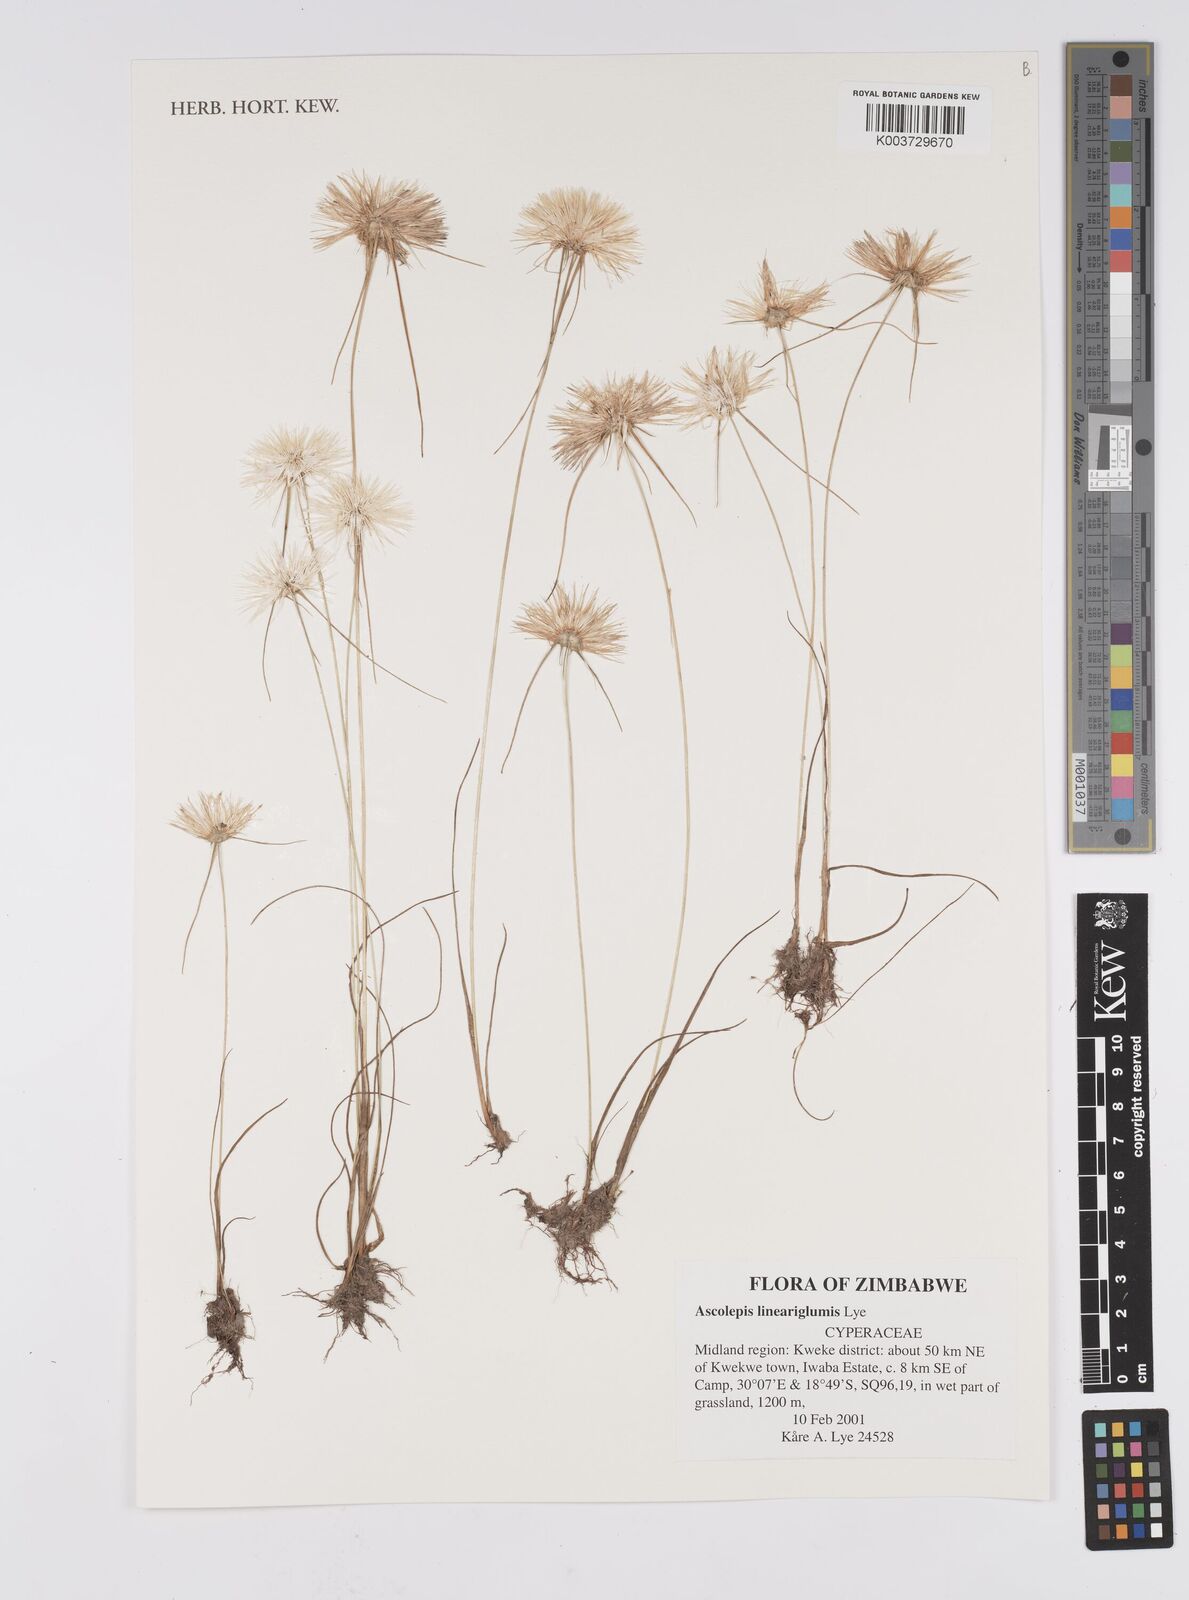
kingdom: Plantae
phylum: Tracheophyta
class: Liliopsida
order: Poales
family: Cyperaceae
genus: Cyperus
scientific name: Cyperus
